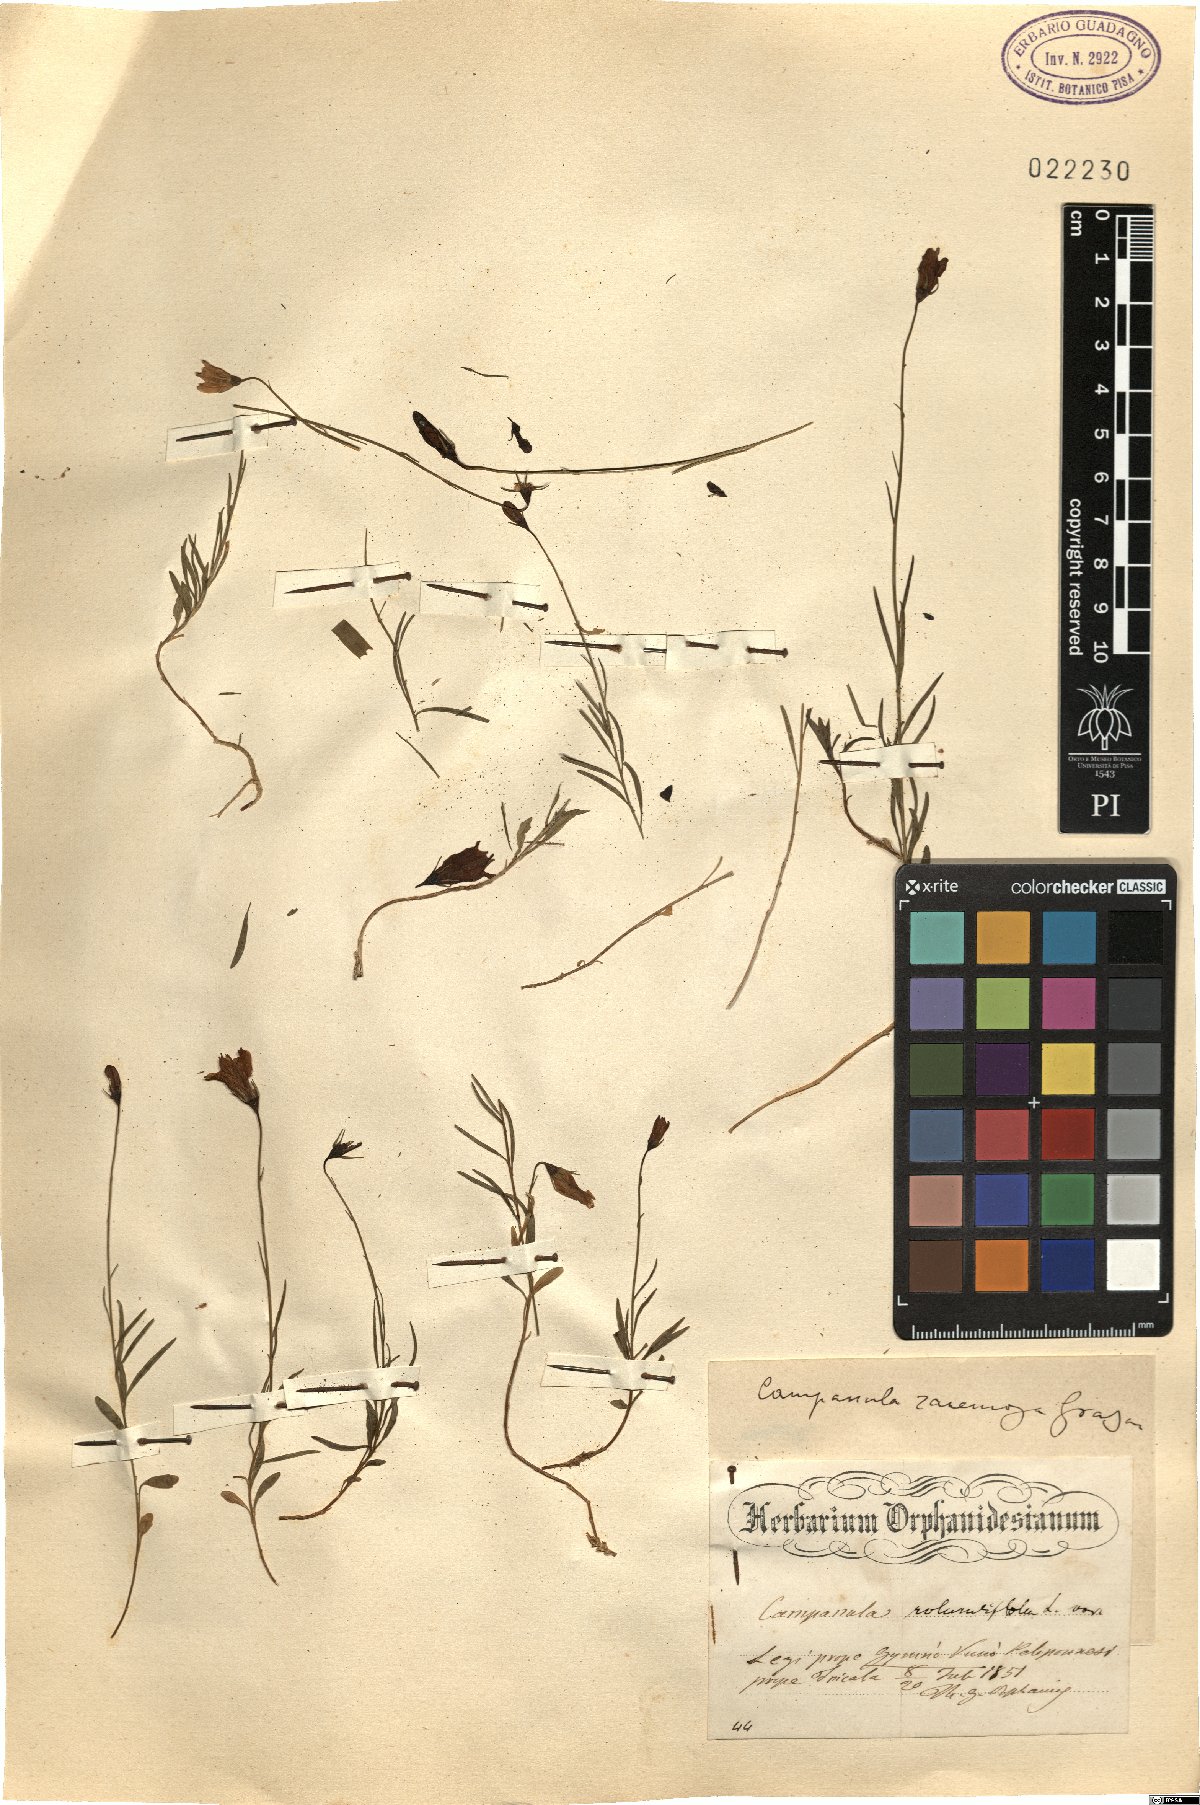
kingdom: Plantae
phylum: Tracheophyta
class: Magnoliopsida
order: Asterales
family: Campanulaceae
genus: Campanula
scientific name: Campanula rotundifolia
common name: Harebell
